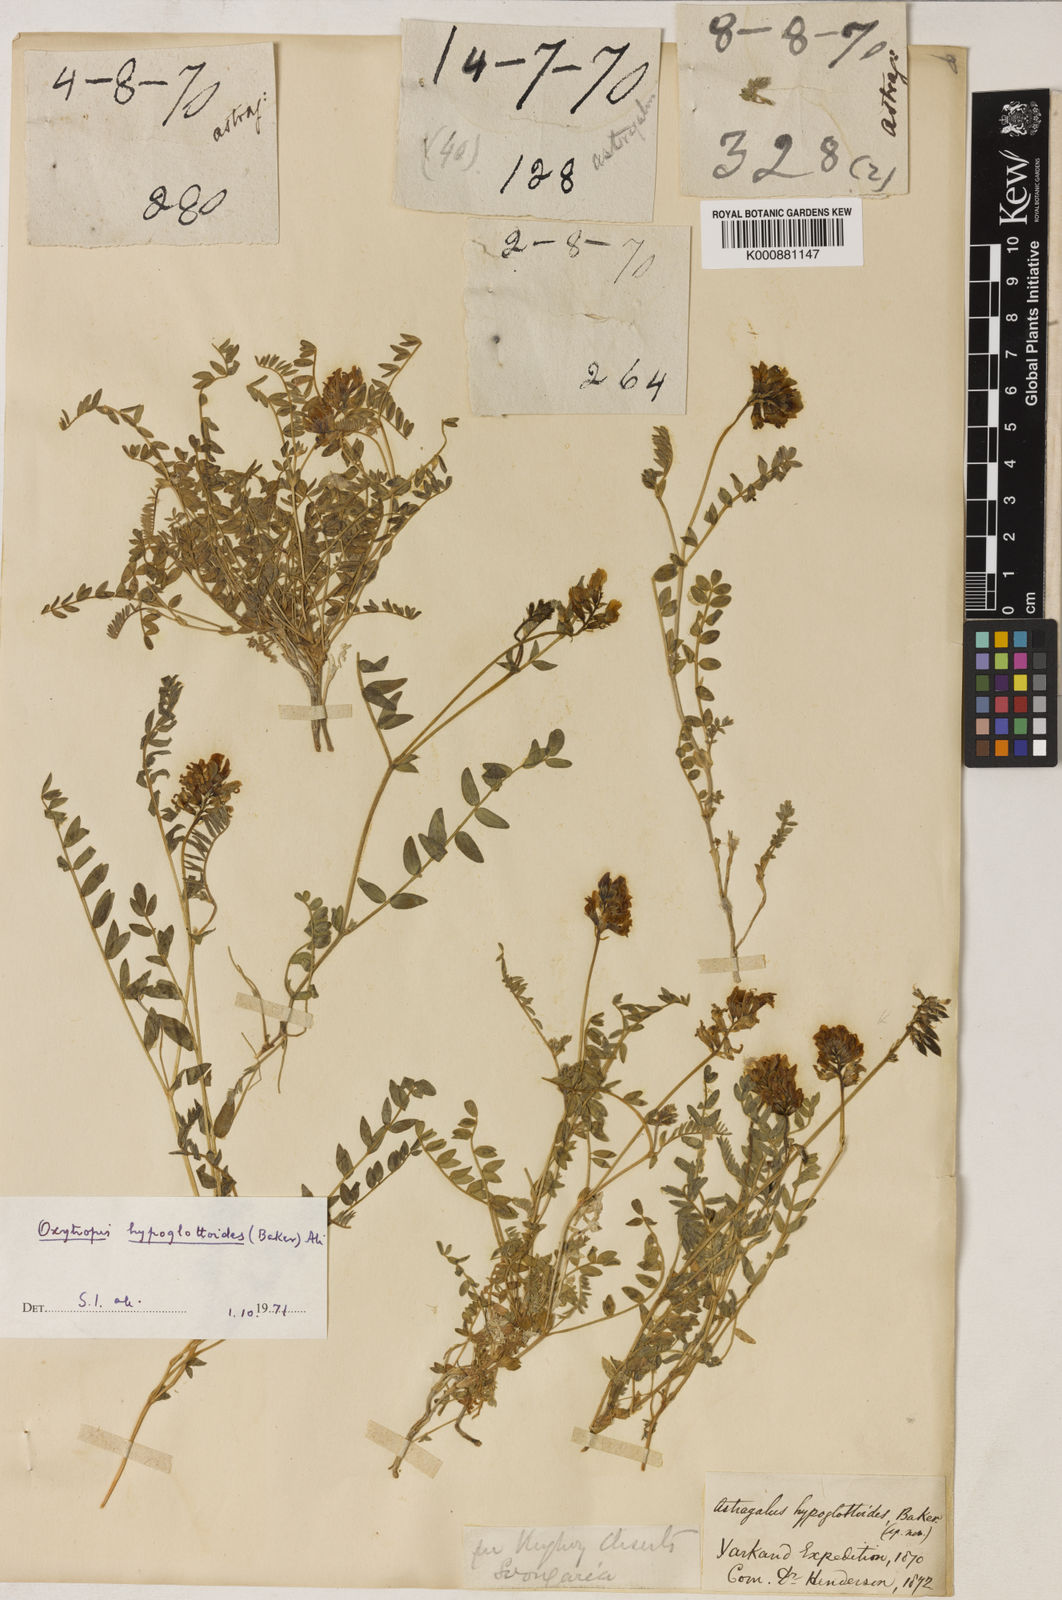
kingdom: Plantae
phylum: Tracheophyta
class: Magnoliopsida
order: Fabales
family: Fabaceae
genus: Oxytropis
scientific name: Oxytropis hypoglottoides
